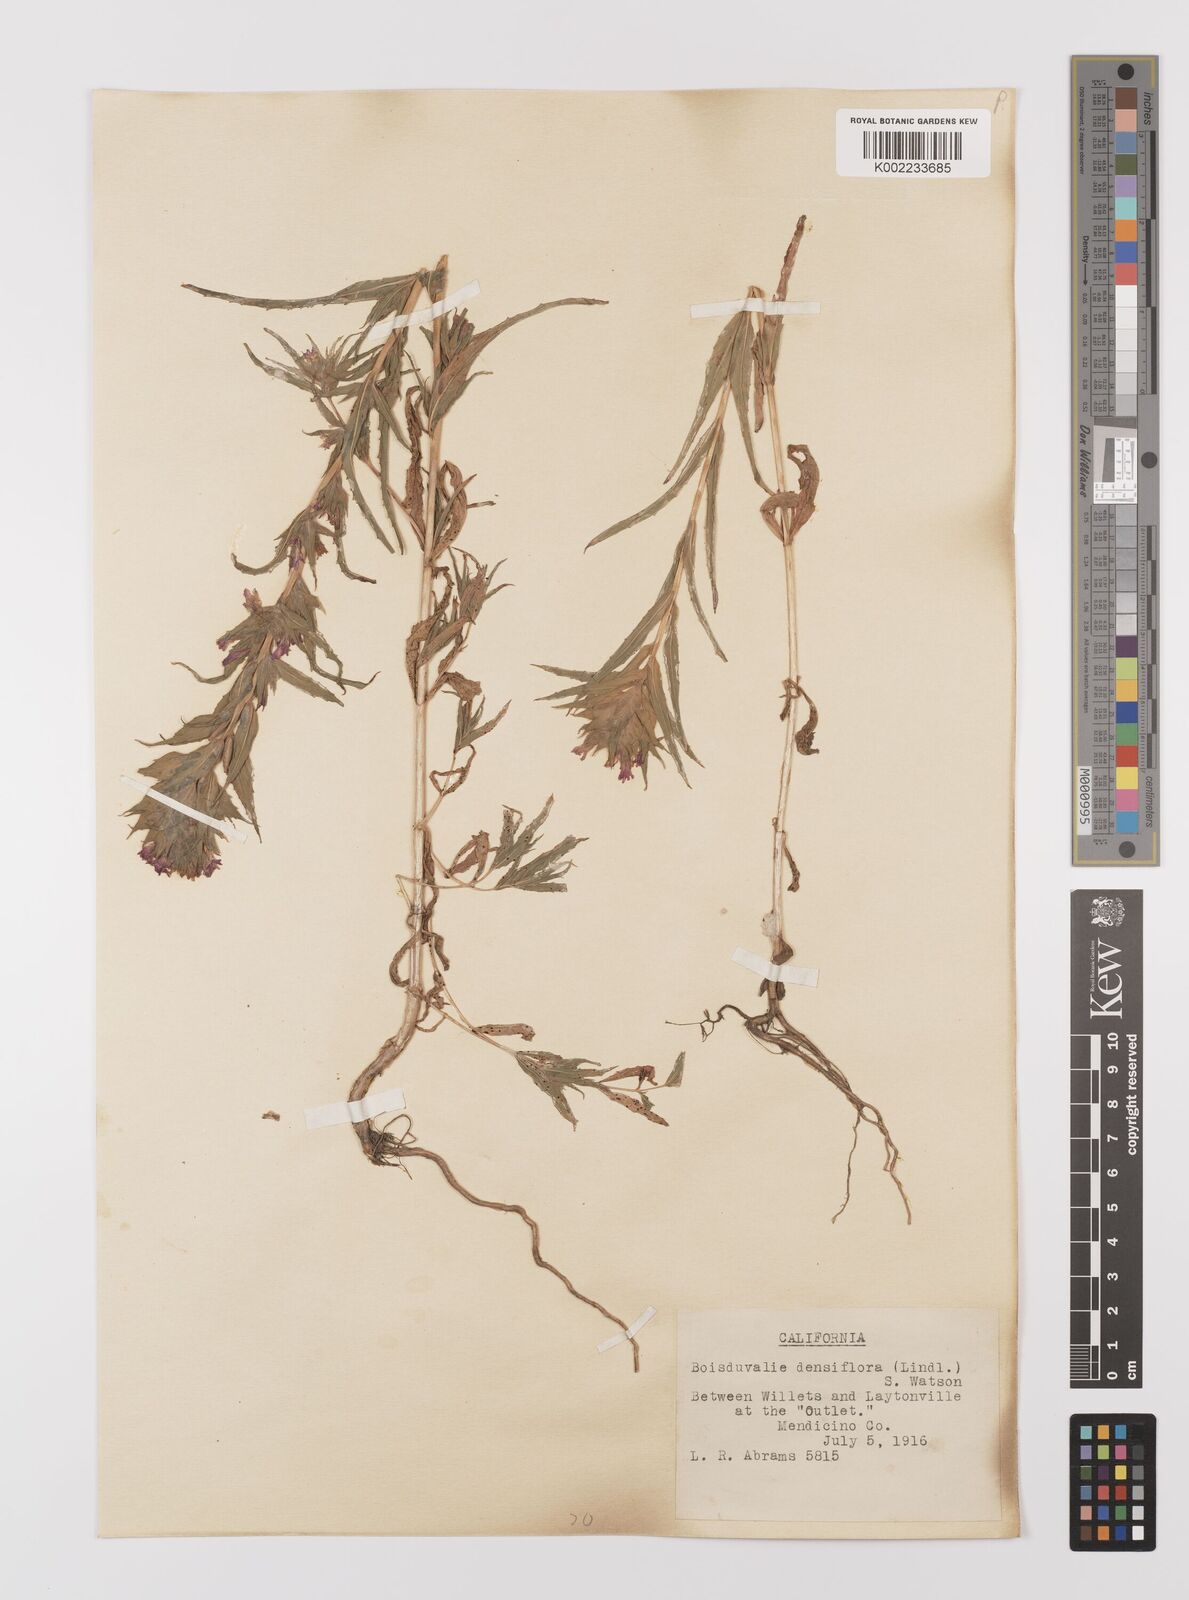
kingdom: Plantae
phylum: Tracheophyta
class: Magnoliopsida
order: Myrtales
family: Onagraceae
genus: Epilobium
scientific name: Epilobium densiflorum
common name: Dense spike-primrose
